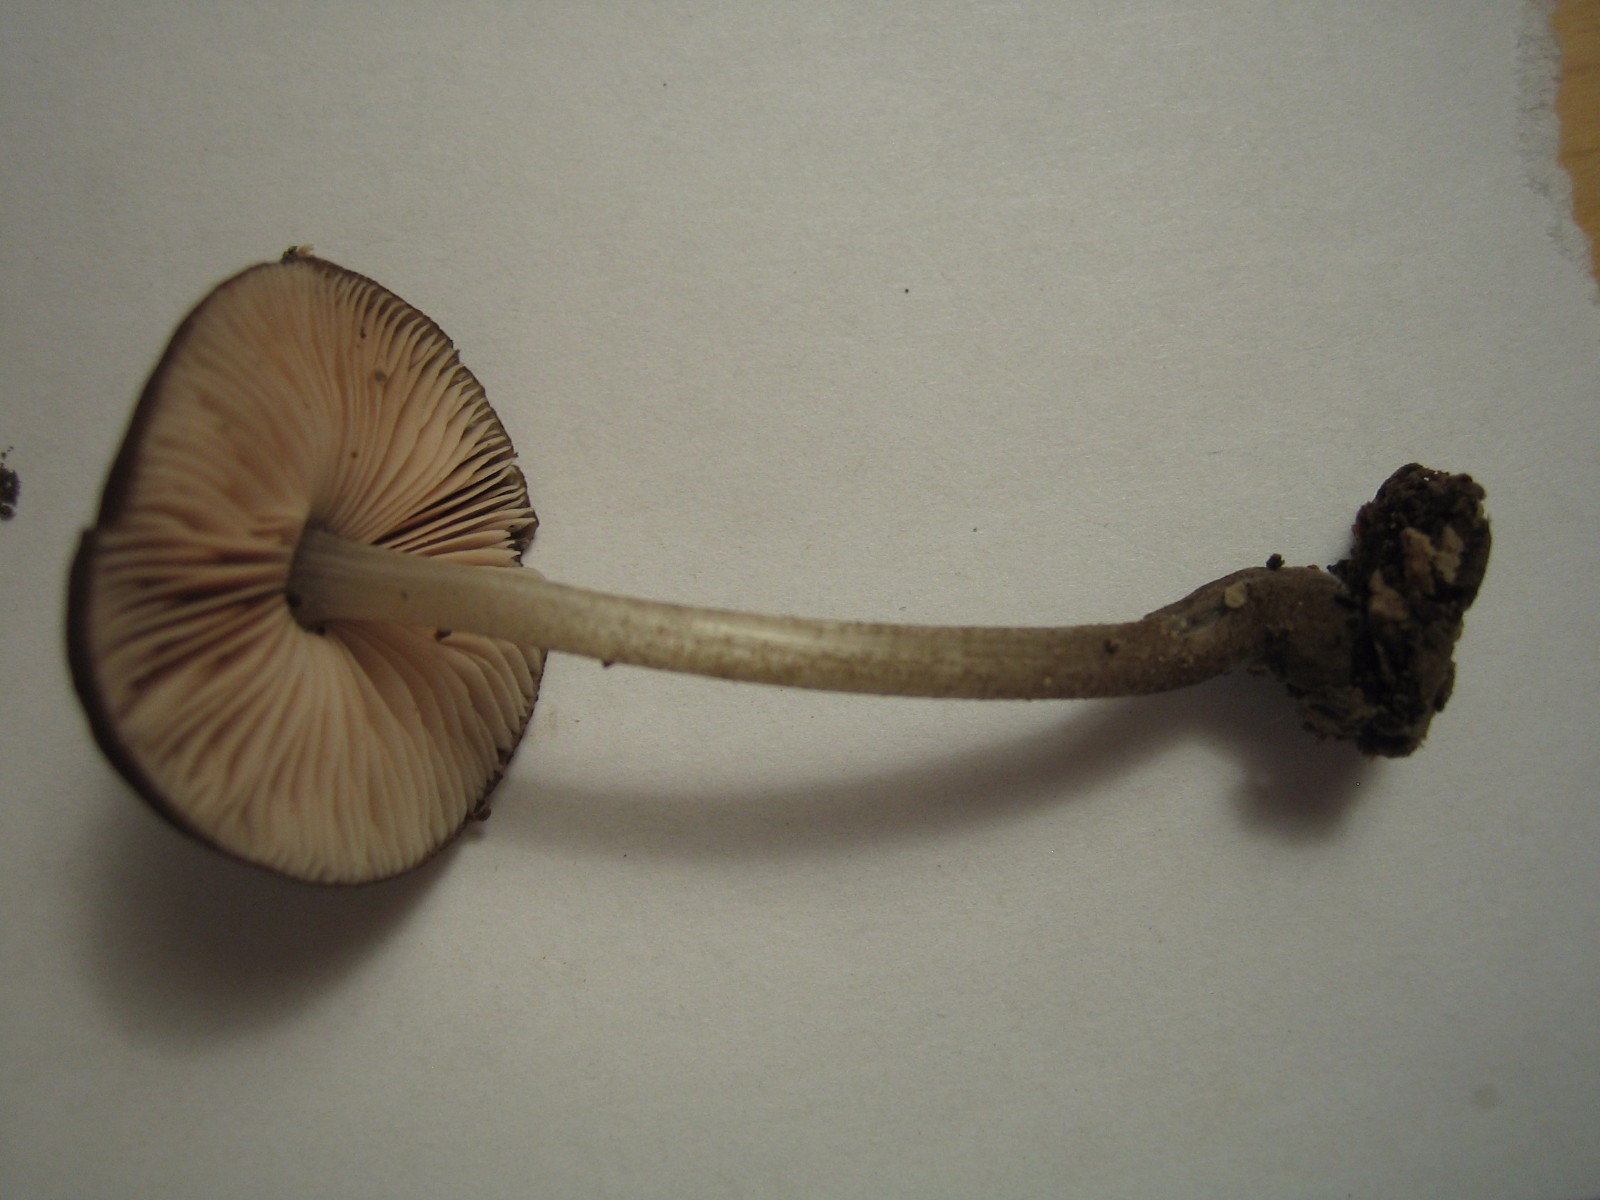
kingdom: Fungi
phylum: Basidiomycota
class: Agaricomycetes
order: Agaricales
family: Pluteaceae
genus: Pluteus
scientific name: Pluteus
